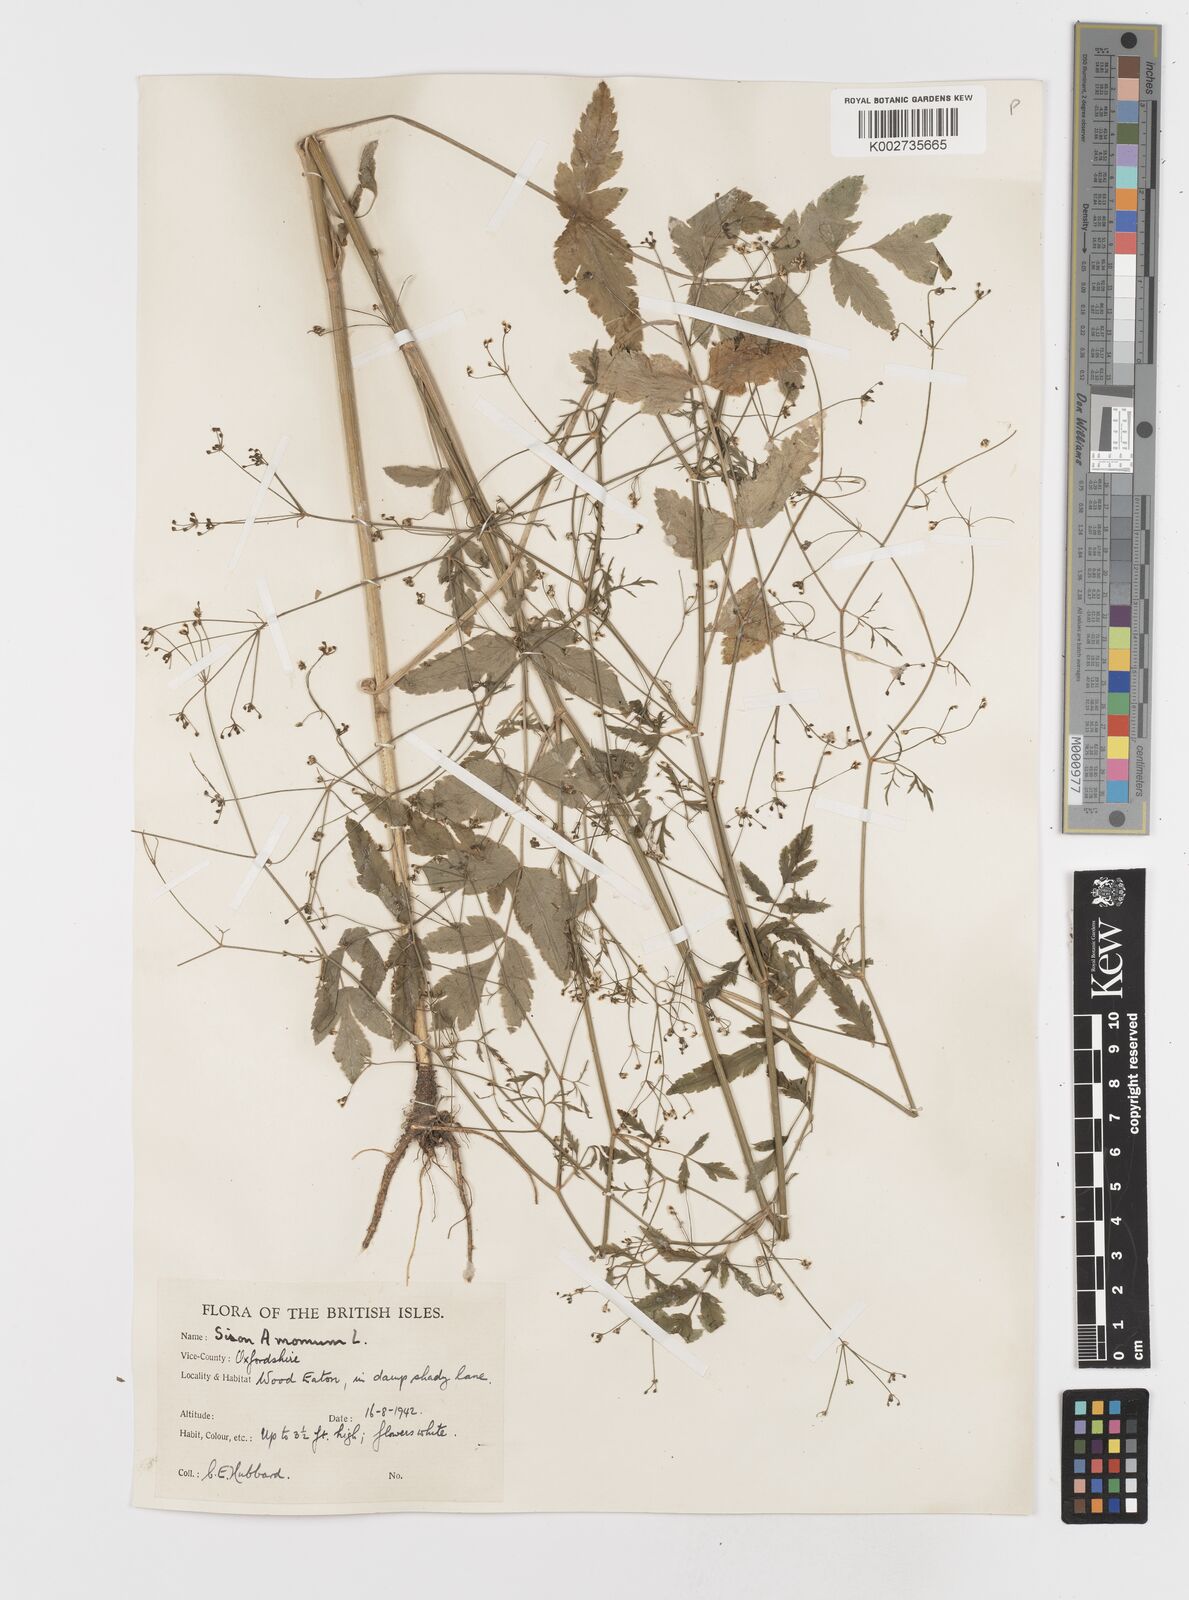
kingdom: Plantae
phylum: Tracheophyta
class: Magnoliopsida
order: Apiales
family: Apiaceae
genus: Sison
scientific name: Sison amomum
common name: Stone-parsley
